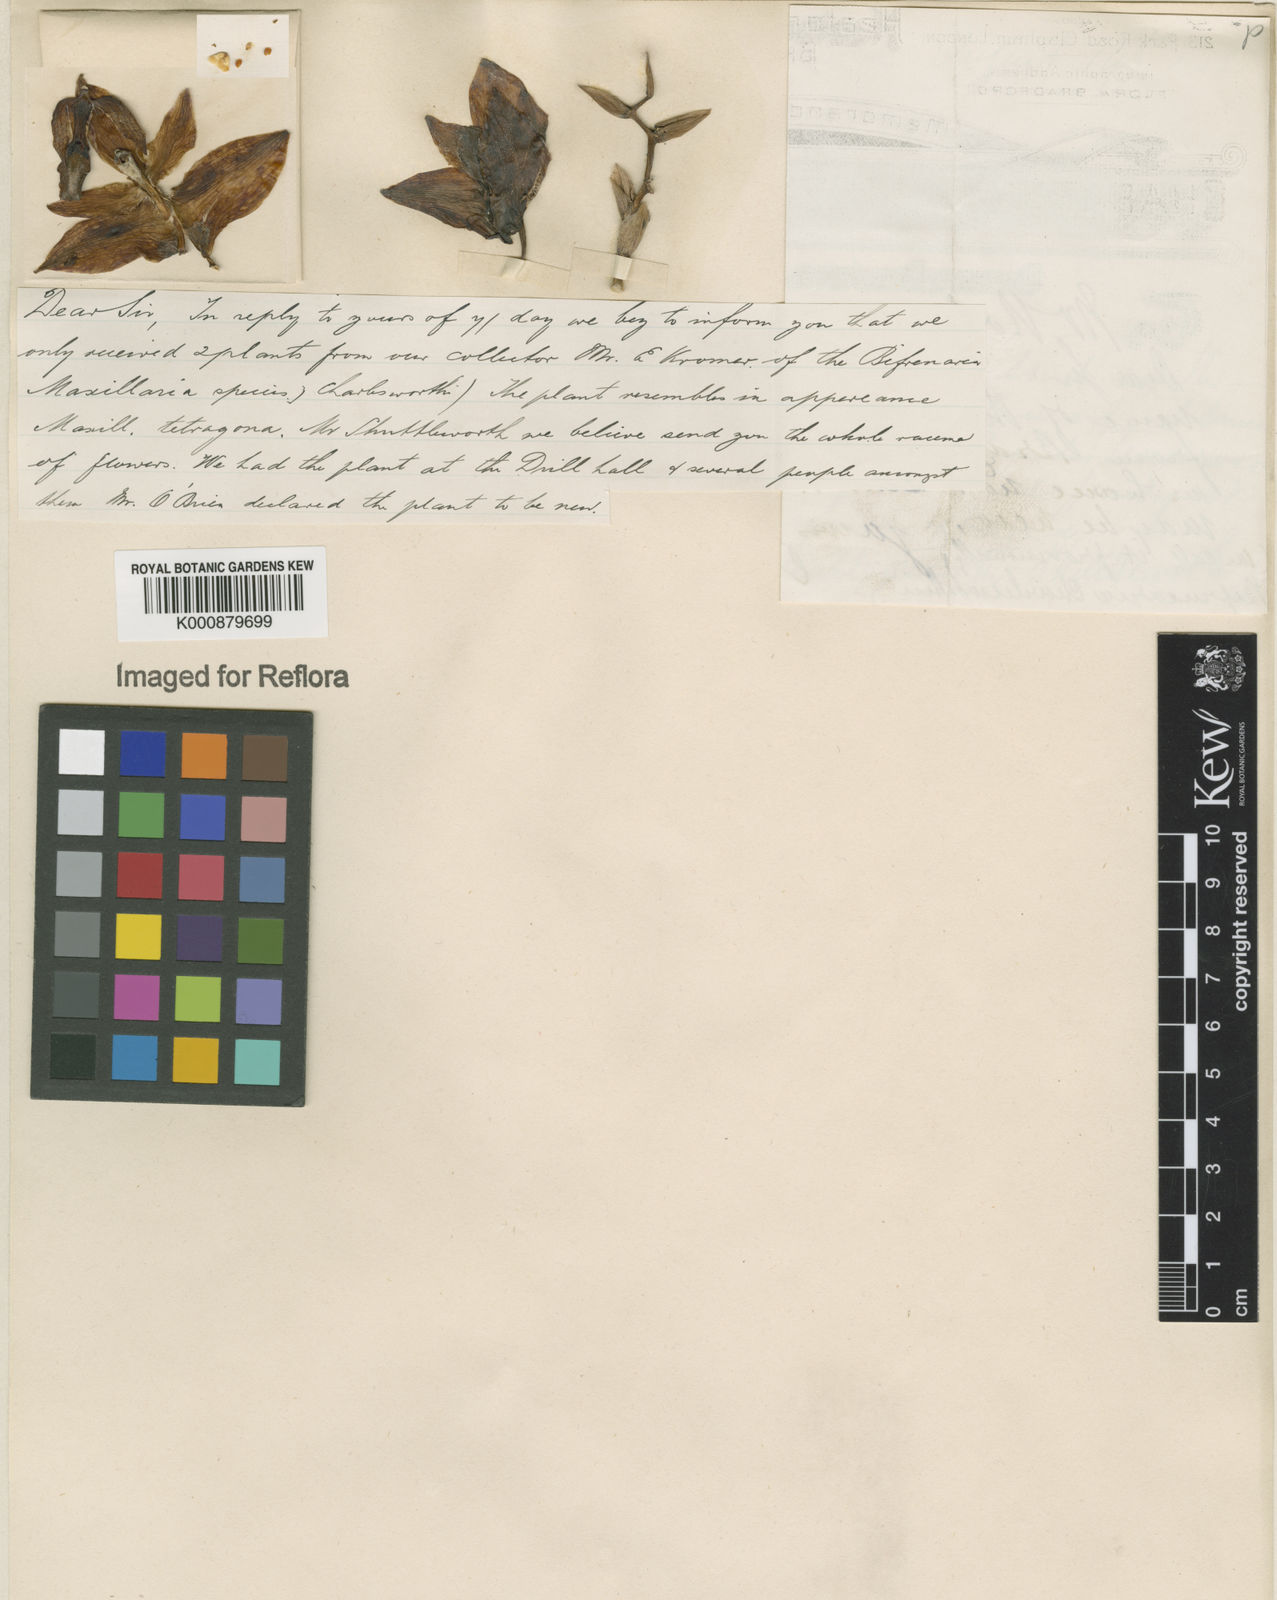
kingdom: Plantae
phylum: Tracheophyta
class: Liliopsida
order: Asparagales
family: Orchidaceae
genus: Bifrenaria
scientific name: Bifrenaria
